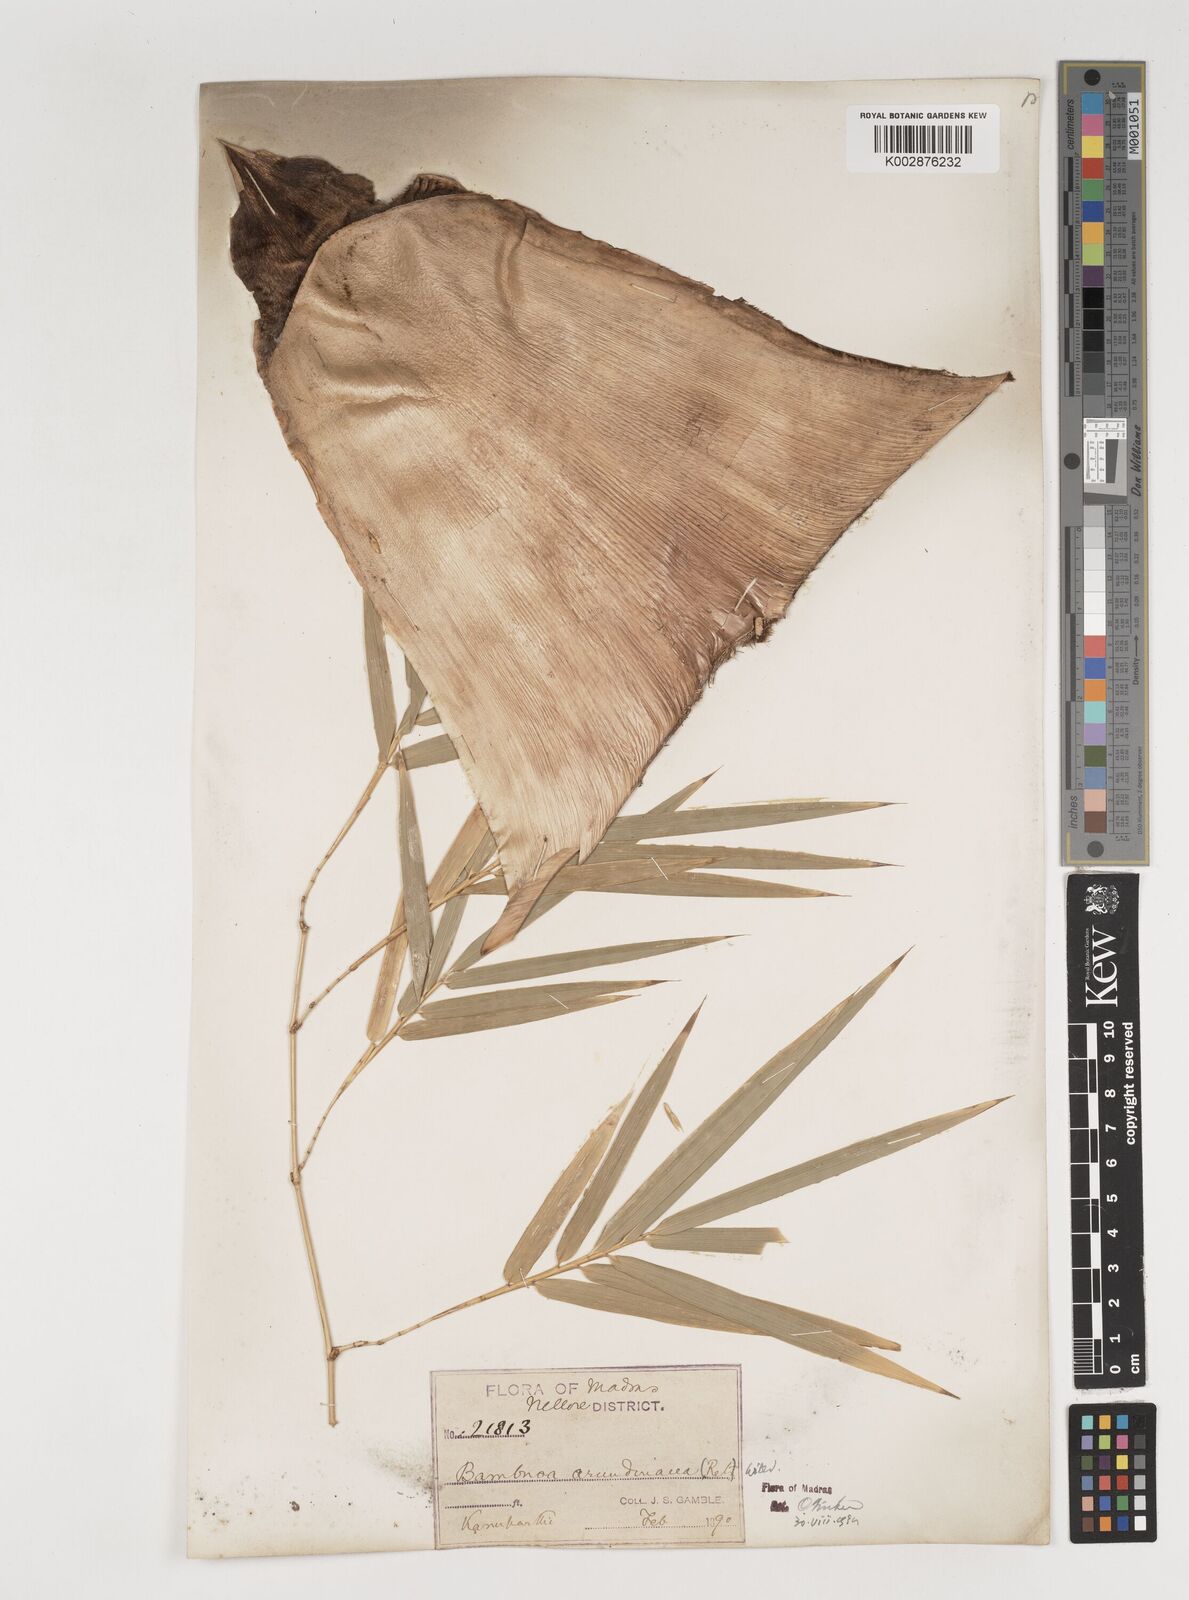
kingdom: Plantae
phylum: Tracheophyta
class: Liliopsida
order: Poales
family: Poaceae
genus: Bambusa
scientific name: Bambusa bambos
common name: Indian thorny bamboo
